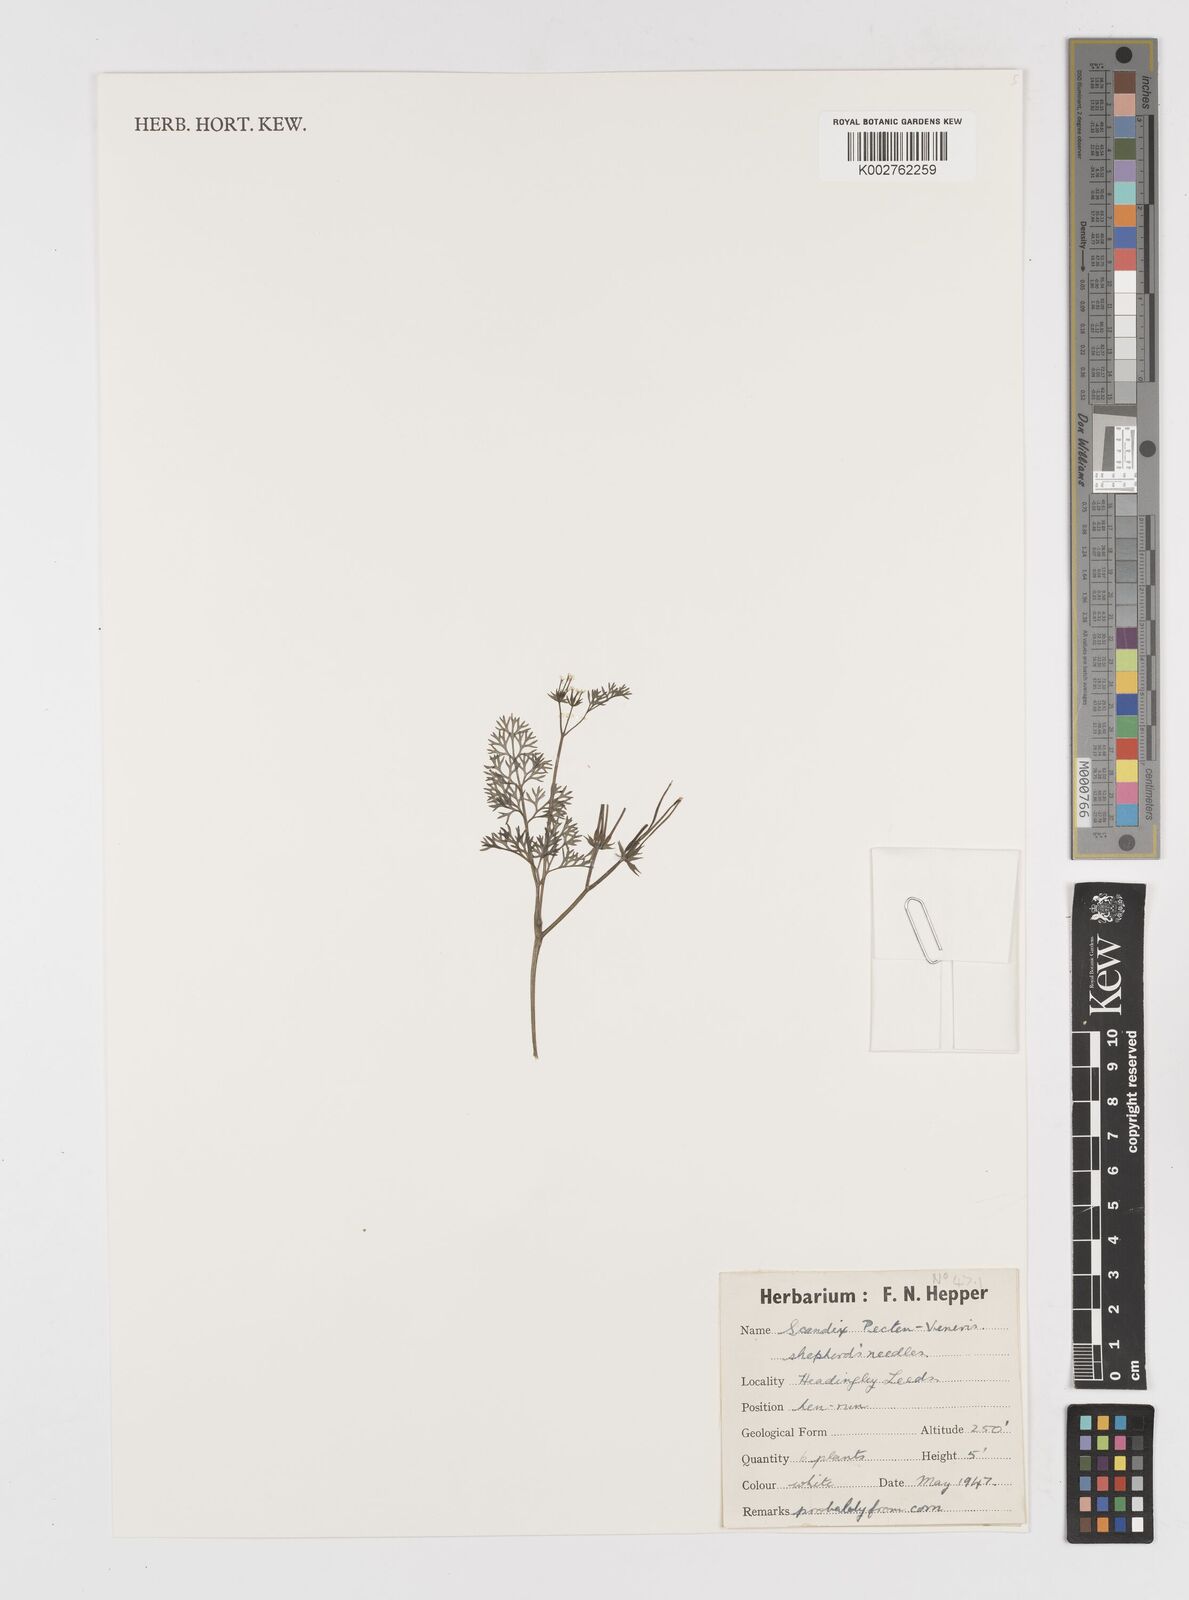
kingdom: Plantae
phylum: Tracheophyta
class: Magnoliopsida
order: Apiales
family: Apiaceae
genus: Scandix
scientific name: Scandix pecten-veneris
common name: Shepherd's-needle
